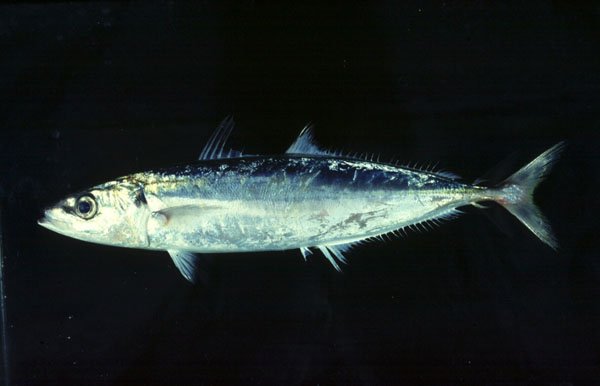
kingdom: Animalia
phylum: Chordata
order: Perciformes
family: Carangidae
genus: Decapterus
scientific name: Decapterus
